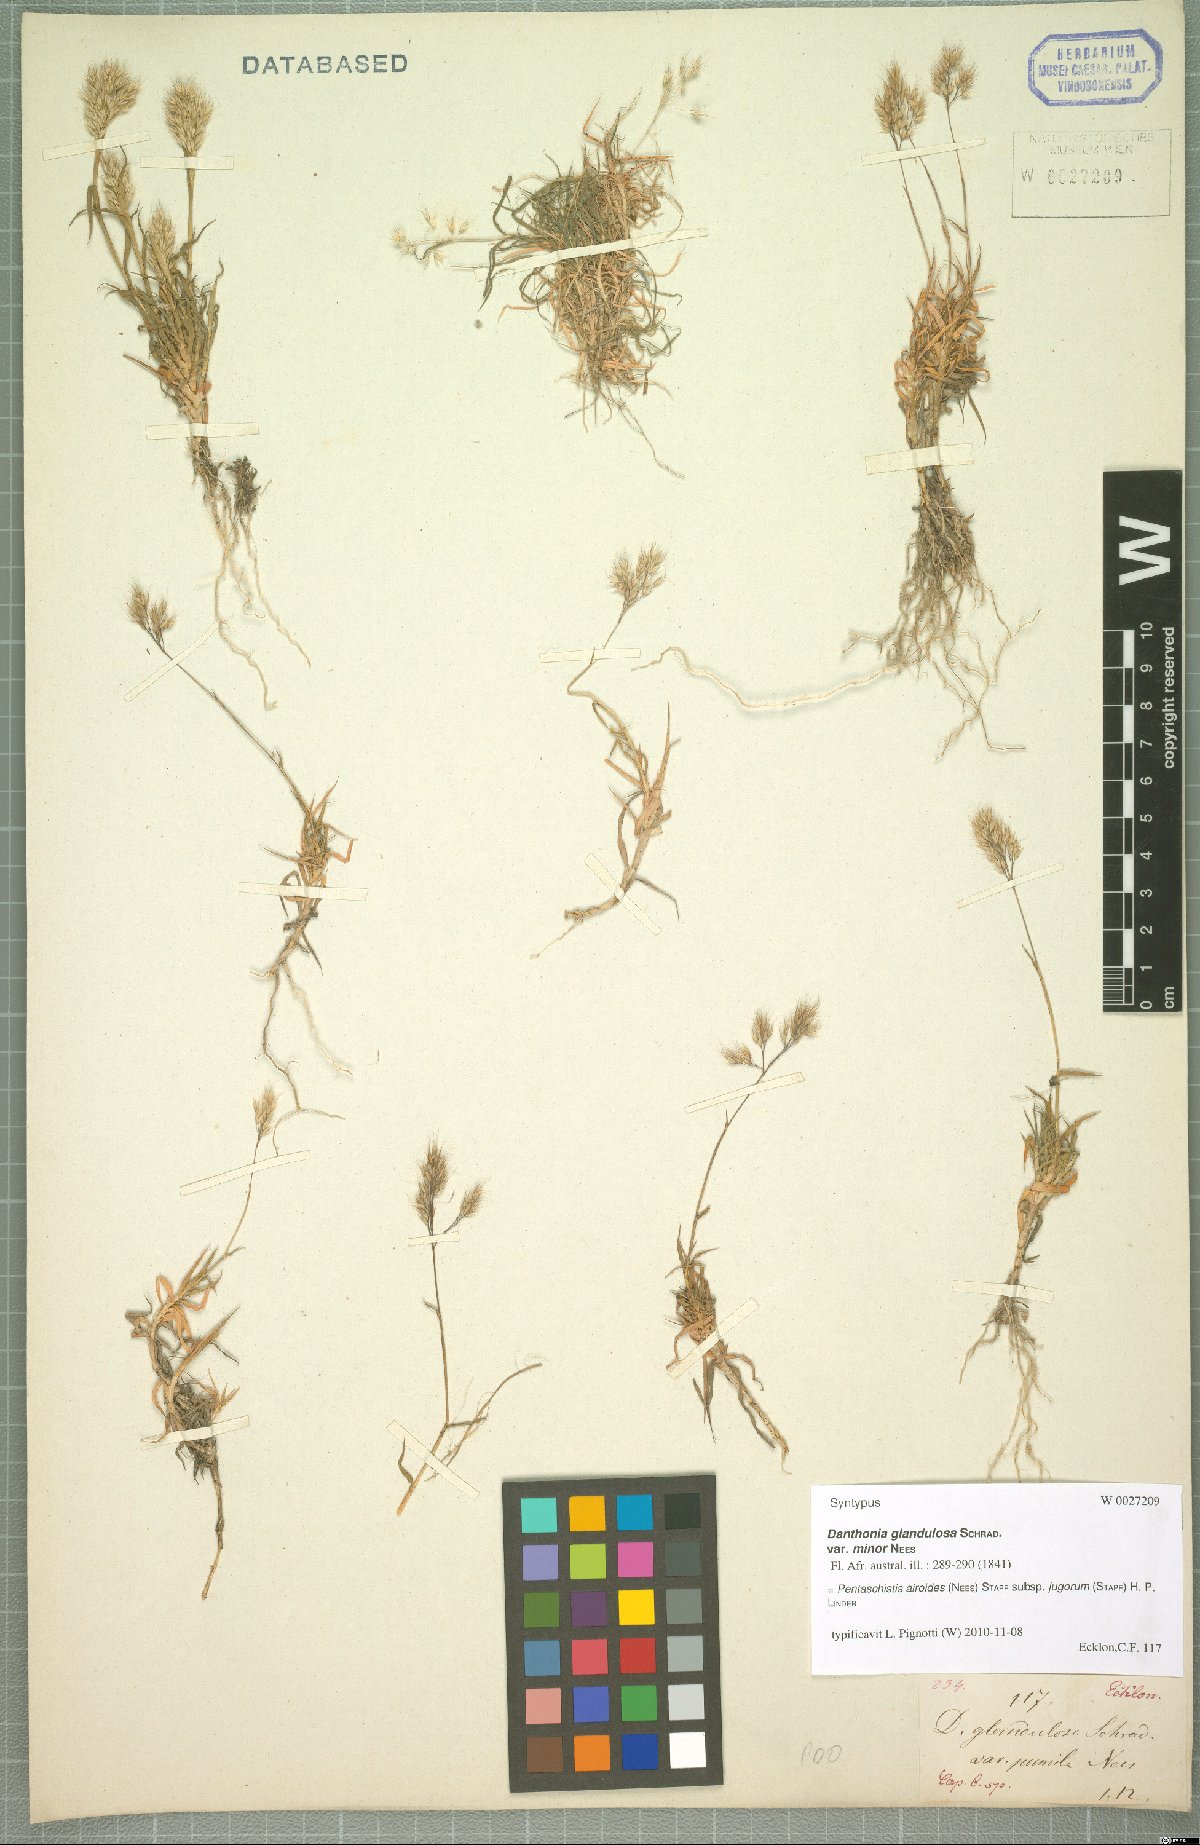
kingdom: Plantae
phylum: Tracheophyta
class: Liliopsida
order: Poales
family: Poaceae
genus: Pentameris
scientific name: Pentameris airoides
